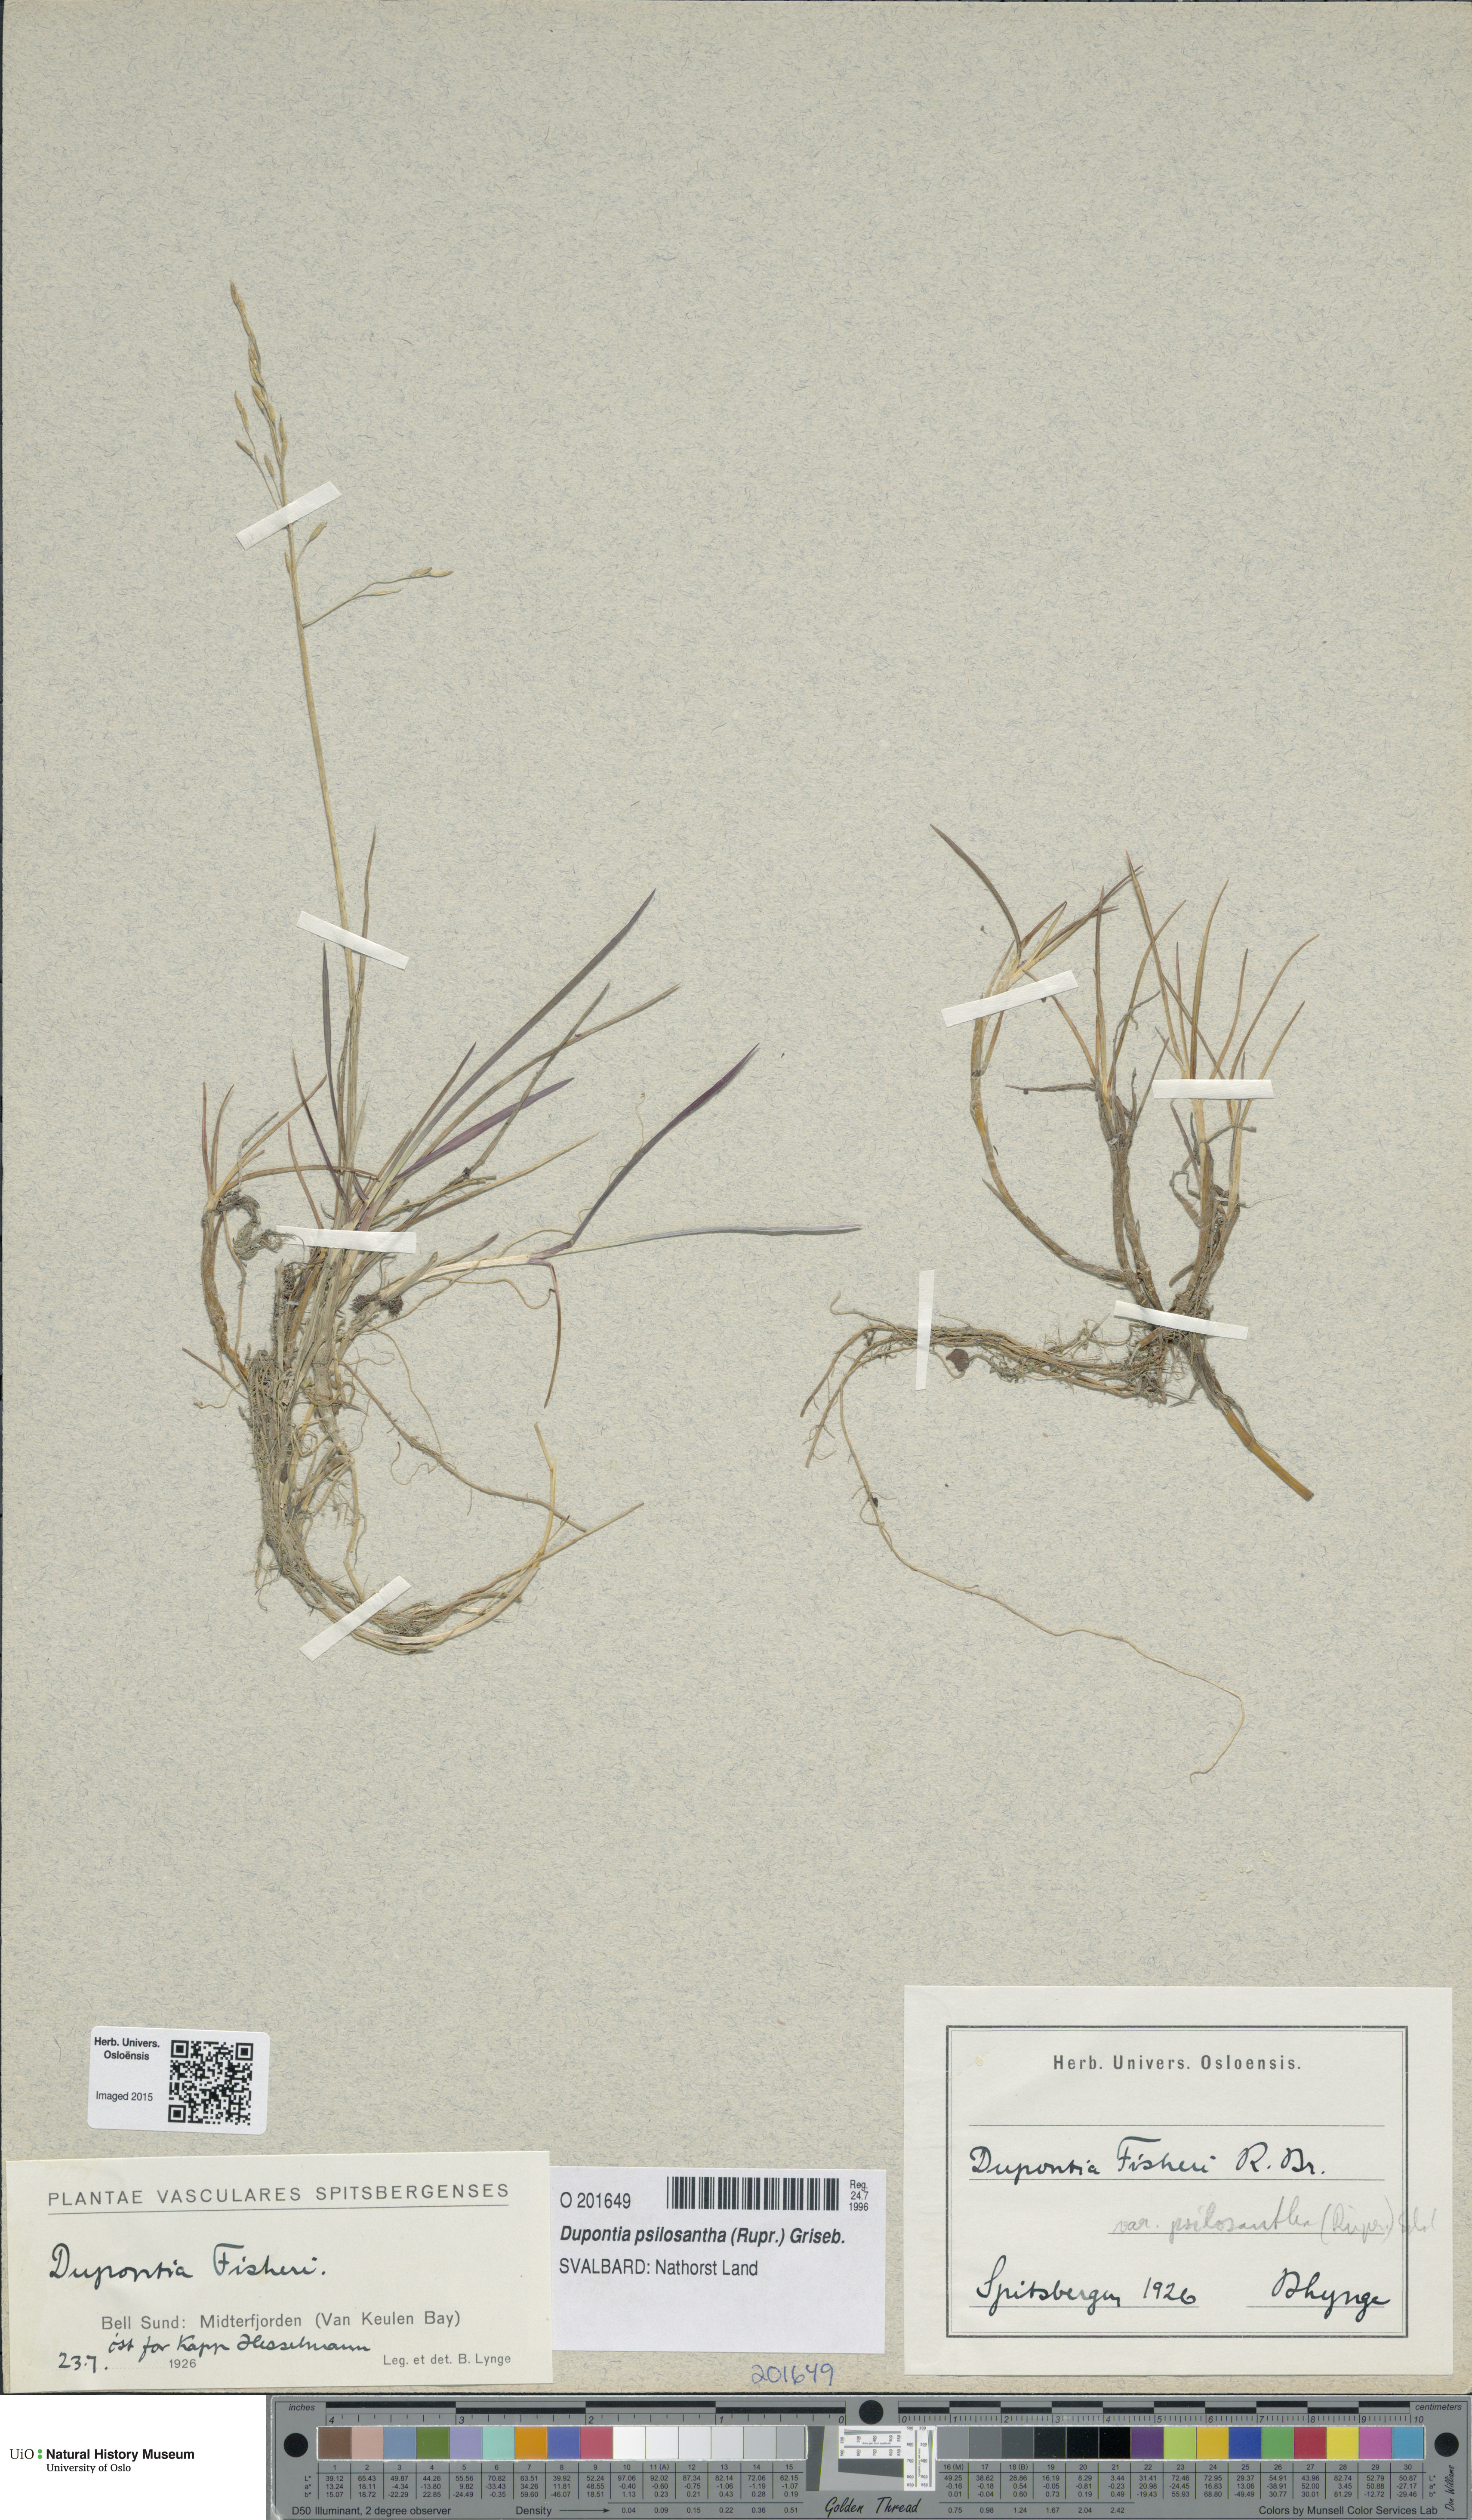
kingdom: Plantae
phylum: Tracheophyta
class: Liliopsida
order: Poales
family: Poaceae
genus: Dupontia
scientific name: Dupontia fisheri
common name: Tundra grass
